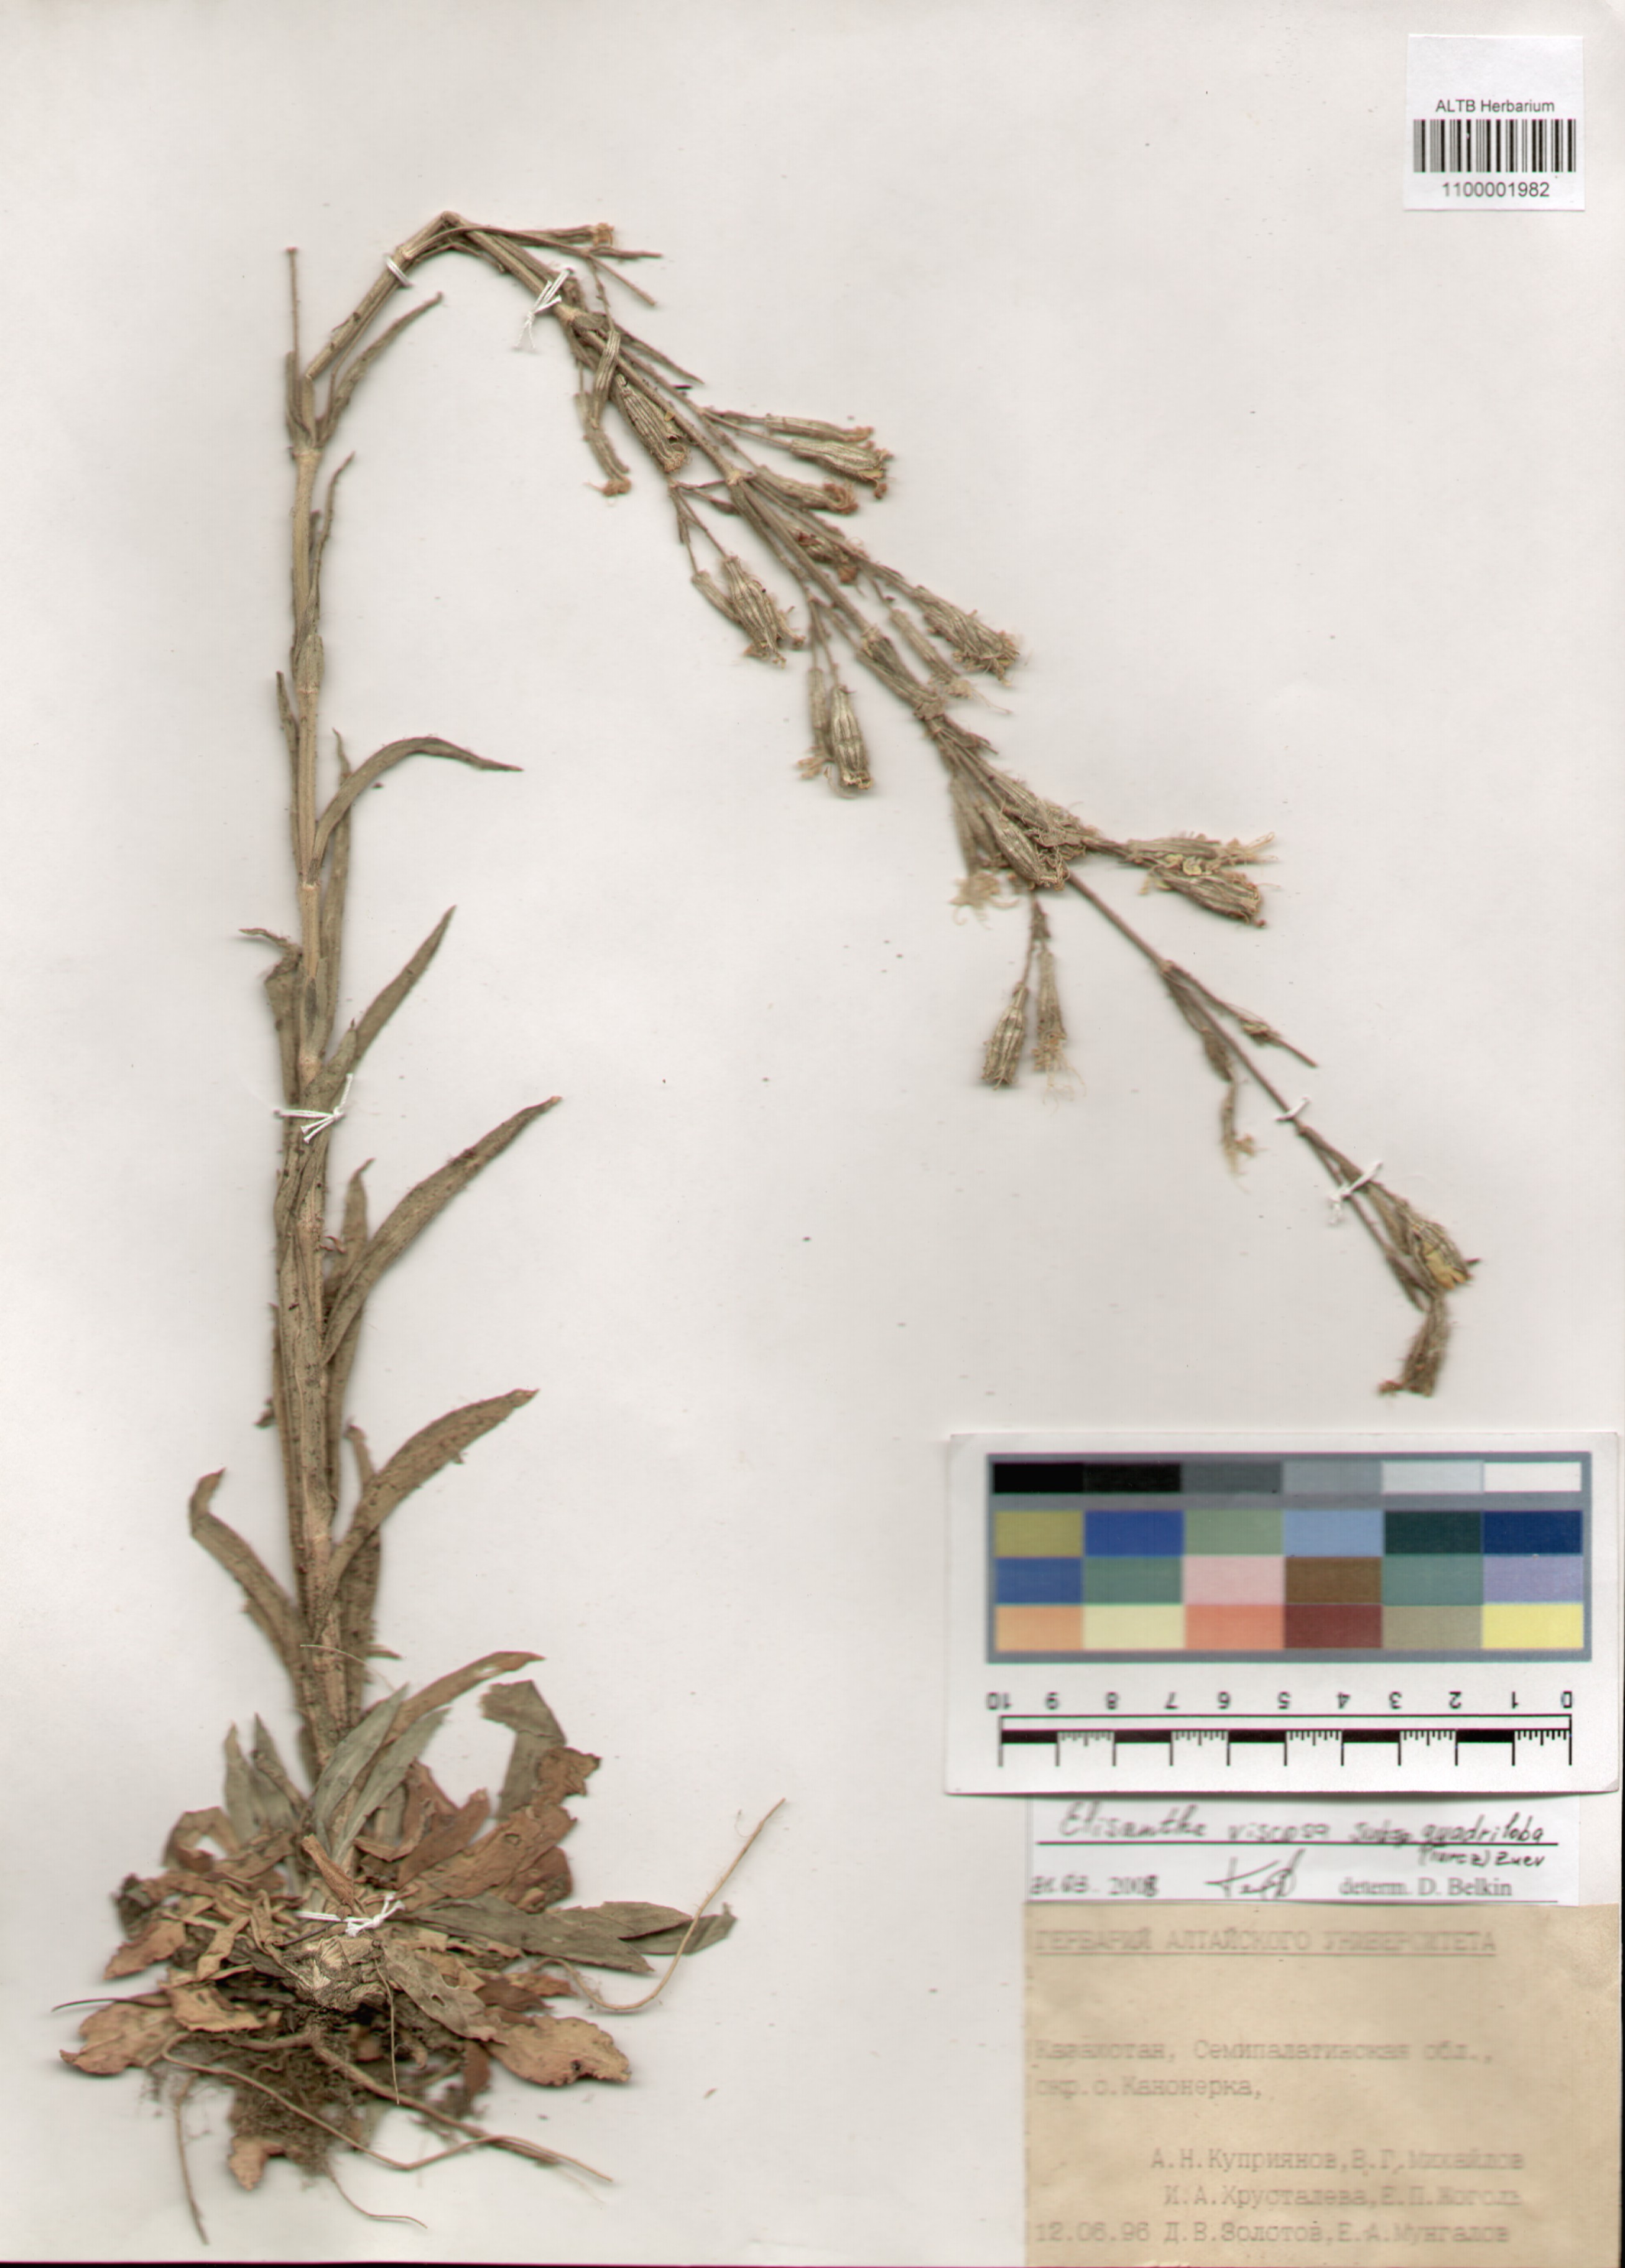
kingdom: Plantae
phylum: Tracheophyta
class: Magnoliopsida
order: Caryophyllales
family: Caryophyllaceae
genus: Silene
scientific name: Silene viscosa
